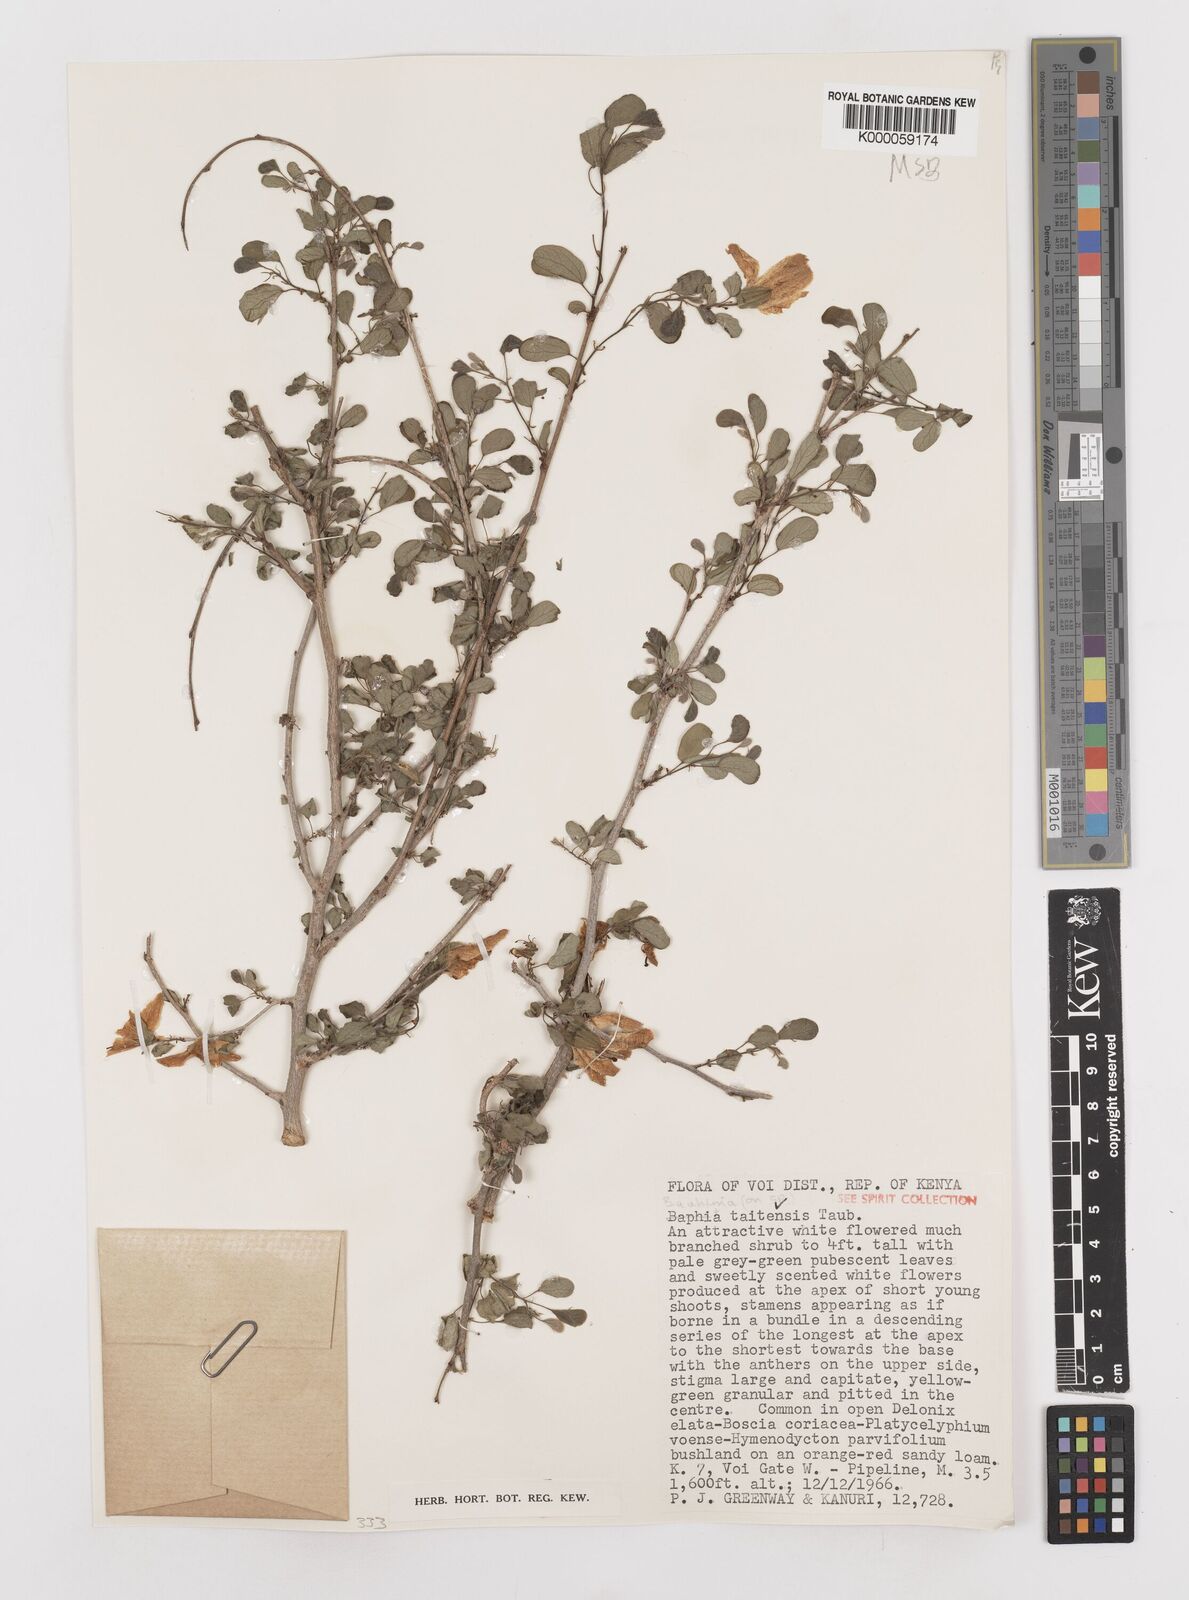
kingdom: Plantae
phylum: Tracheophyta
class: Magnoliopsida
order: Fabales
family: Fabaceae
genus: Bauhinia
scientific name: Bauhinia taitensis
